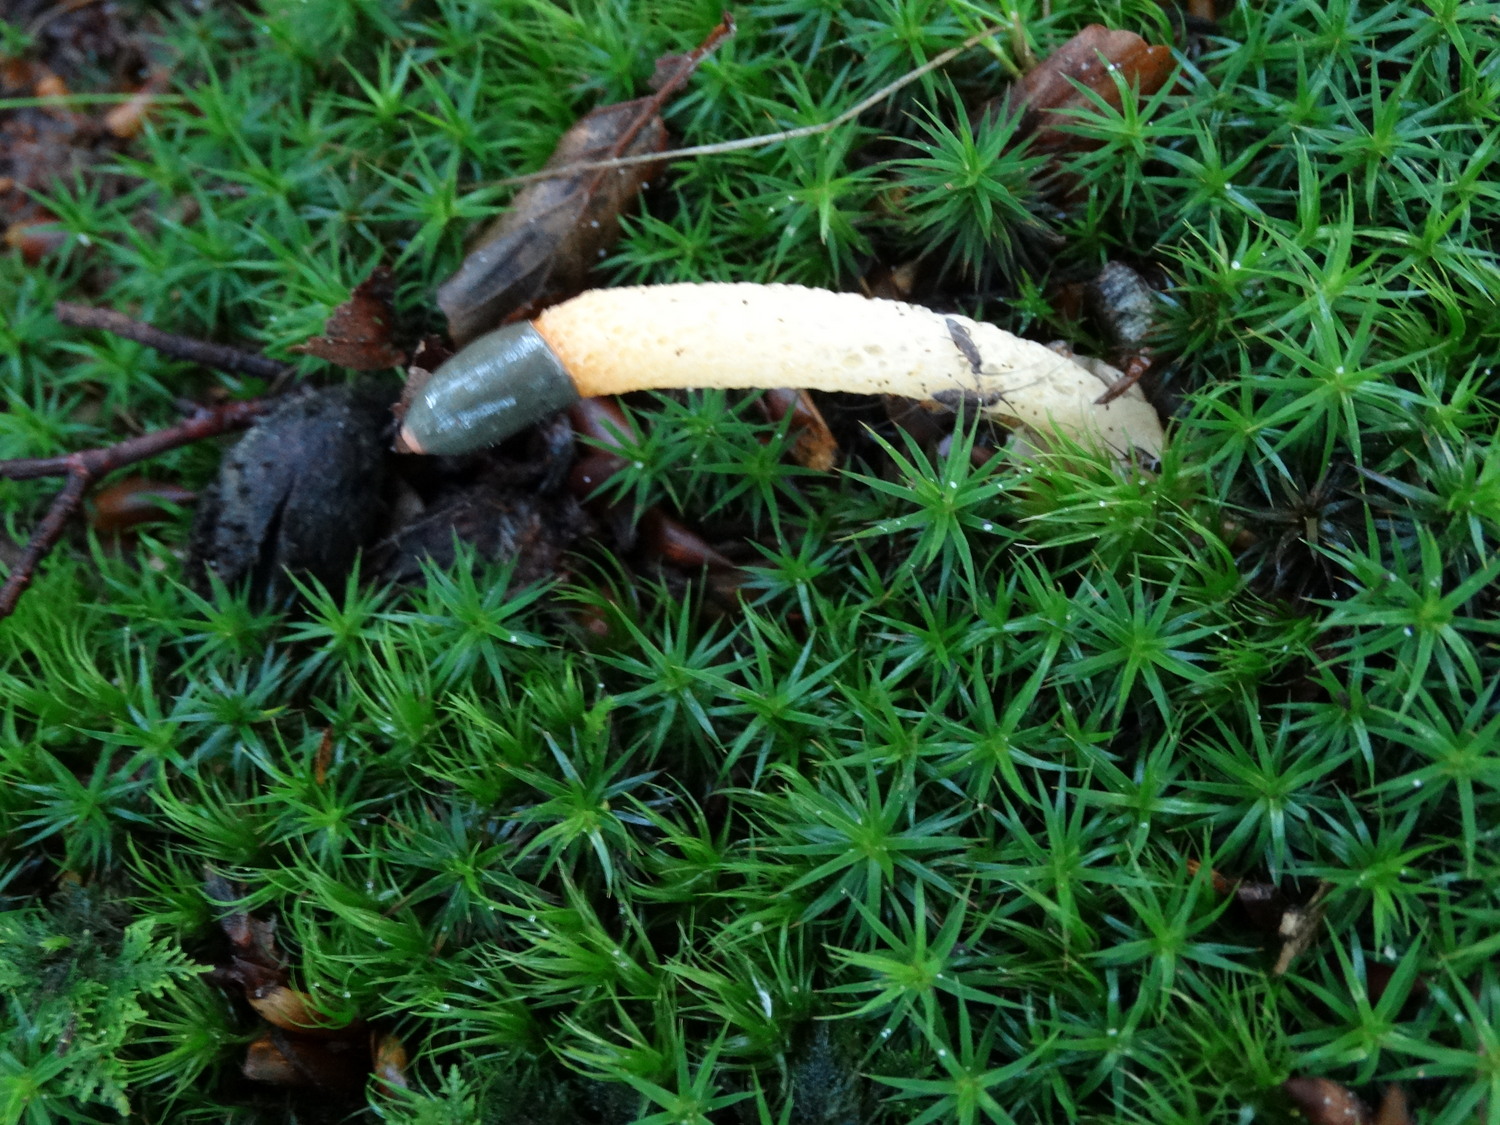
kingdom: Fungi
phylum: Basidiomycota
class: Agaricomycetes
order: Phallales
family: Phallaceae
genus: Mutinus
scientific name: Mutinus caninus
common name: hunde-stinksvamp
